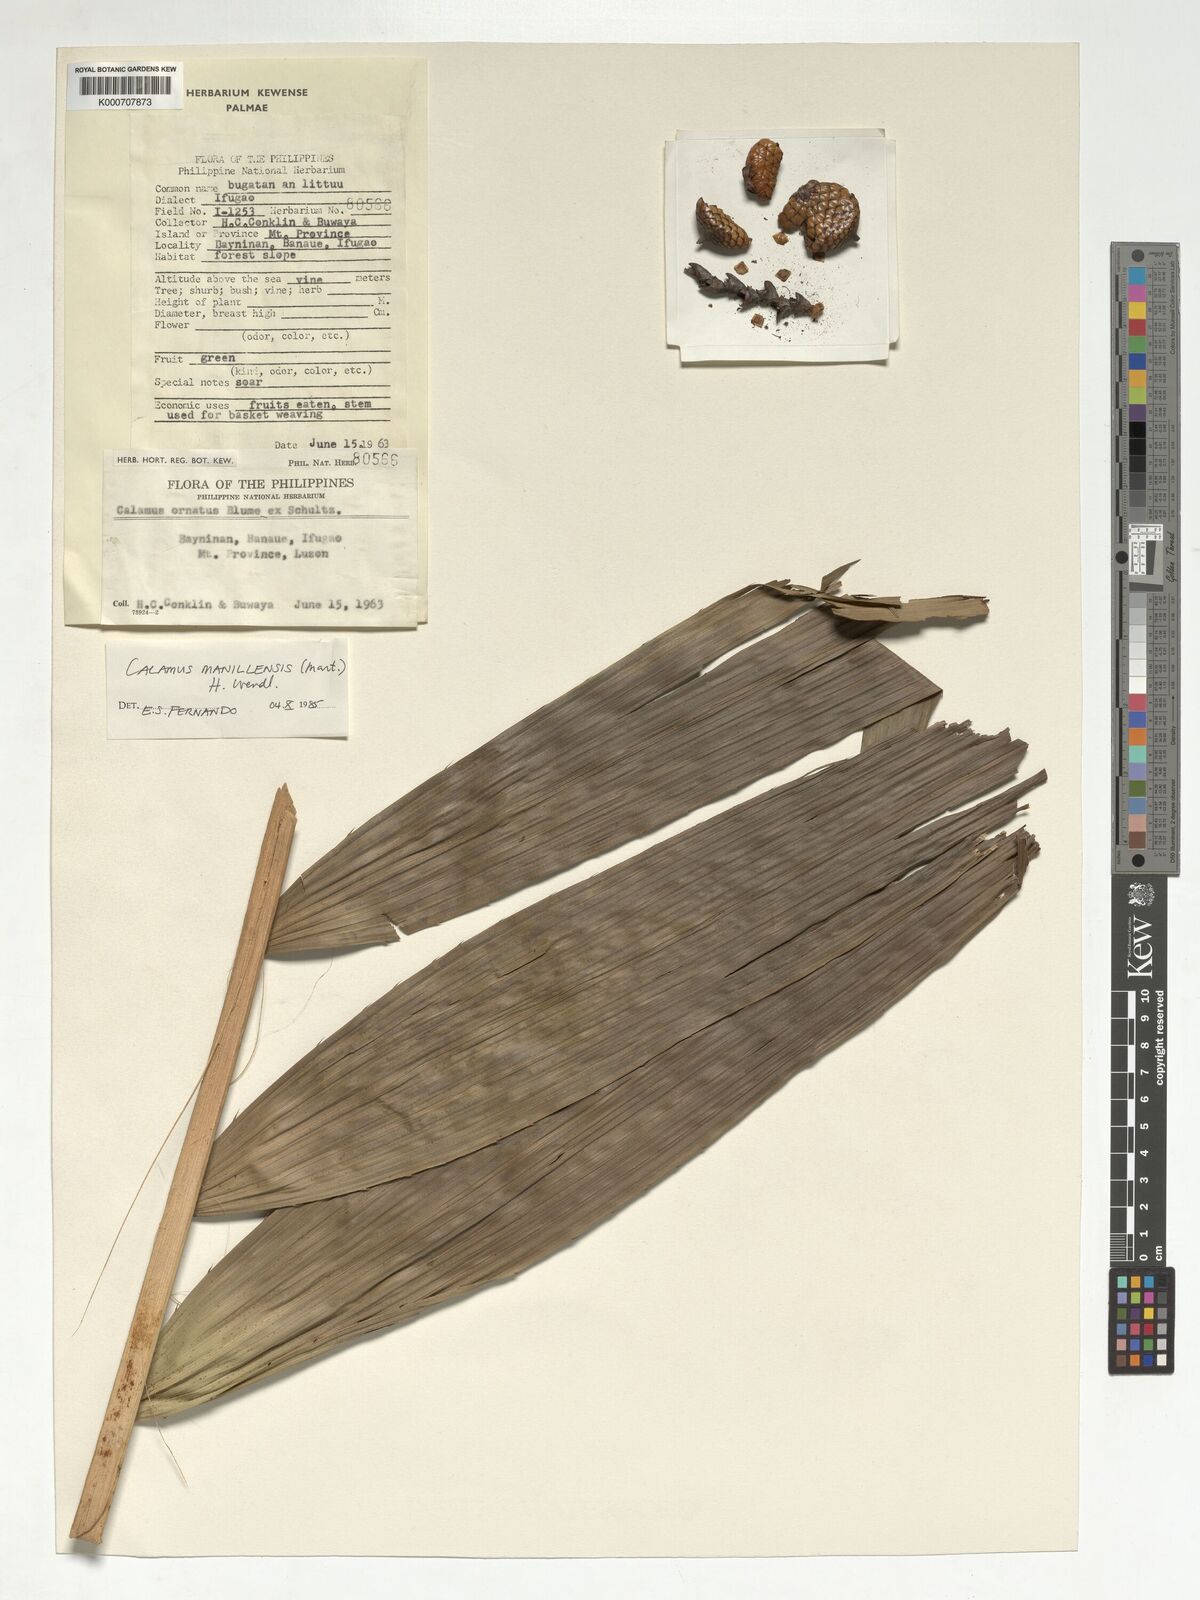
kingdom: Plantae
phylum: Tracheophyta
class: Liliopsida
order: Arecales
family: Arecaceae
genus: Calamus
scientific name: Calamus manan
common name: Rattan
